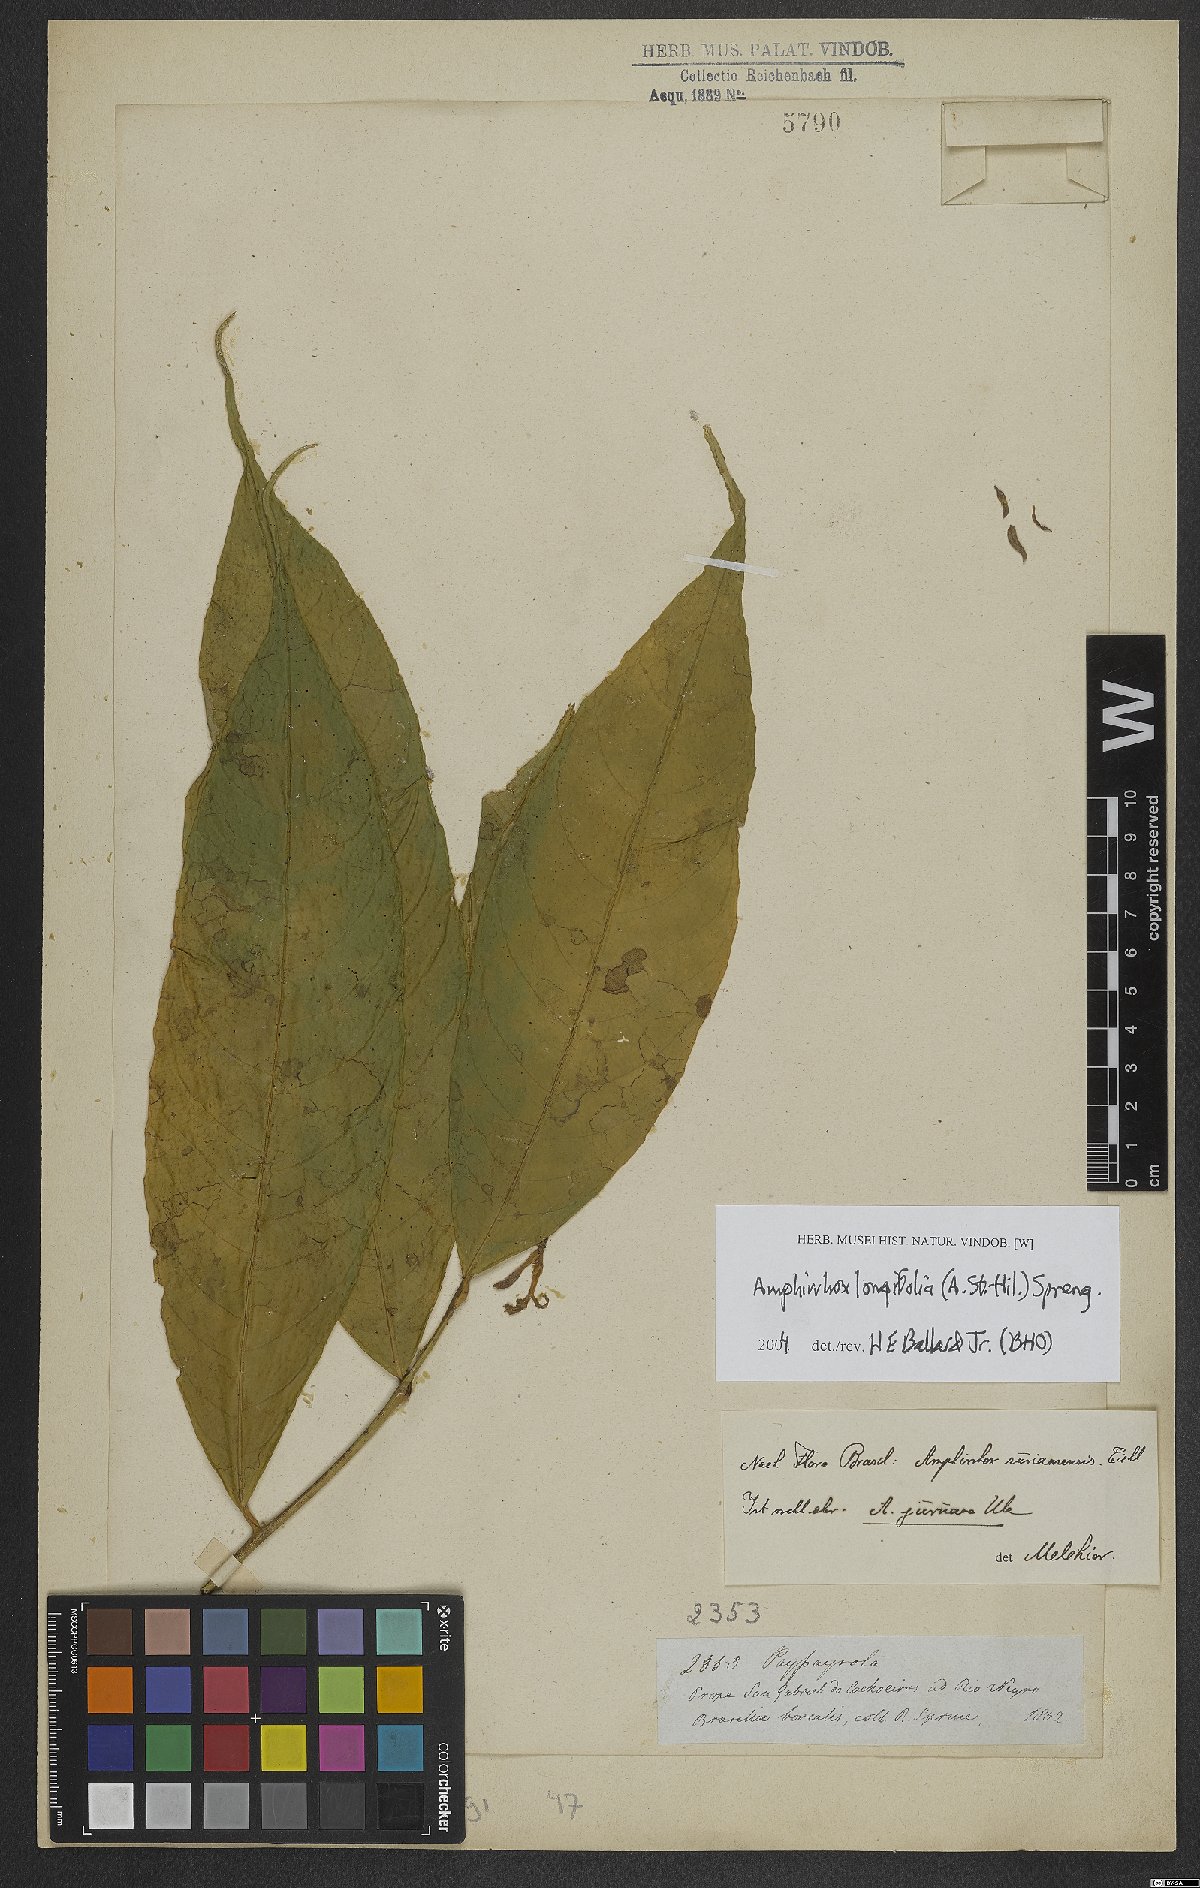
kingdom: Plantae
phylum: Tracheophyta
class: Magnoliopsida
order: Malpighiales
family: Violaceae
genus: Amphirrhox
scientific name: Amphirrhox longifolia
